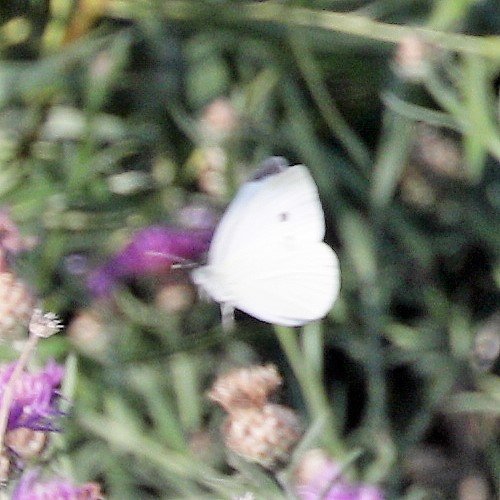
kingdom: Animalia
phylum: Arthropoda
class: Insecta
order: Lepidoptera
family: Pieridae
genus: Pieris
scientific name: Pieris rapae
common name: Cabbage White
